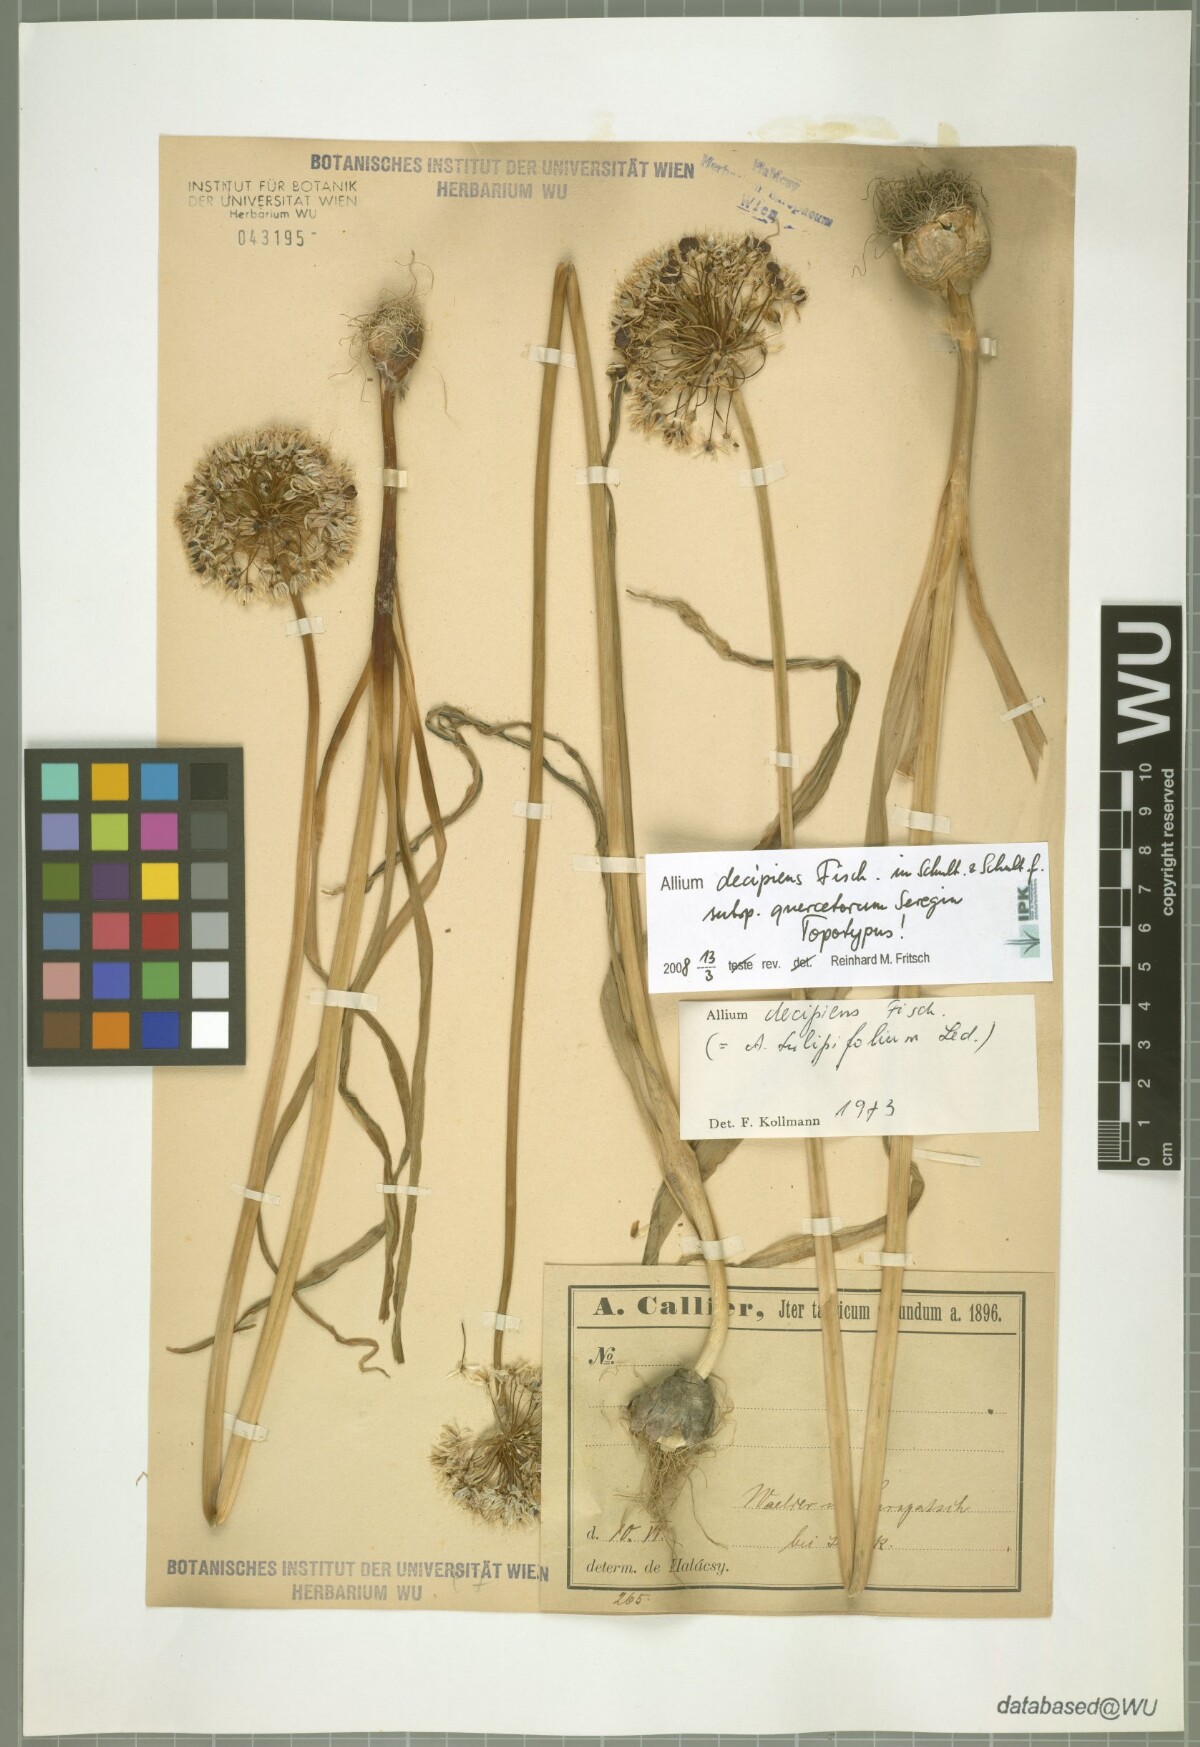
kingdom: Plantae
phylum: Tracheophyta
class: Liliopsida
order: Asparagales
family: Amaryllidaceae
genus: Allium
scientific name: Allium quercetorum
